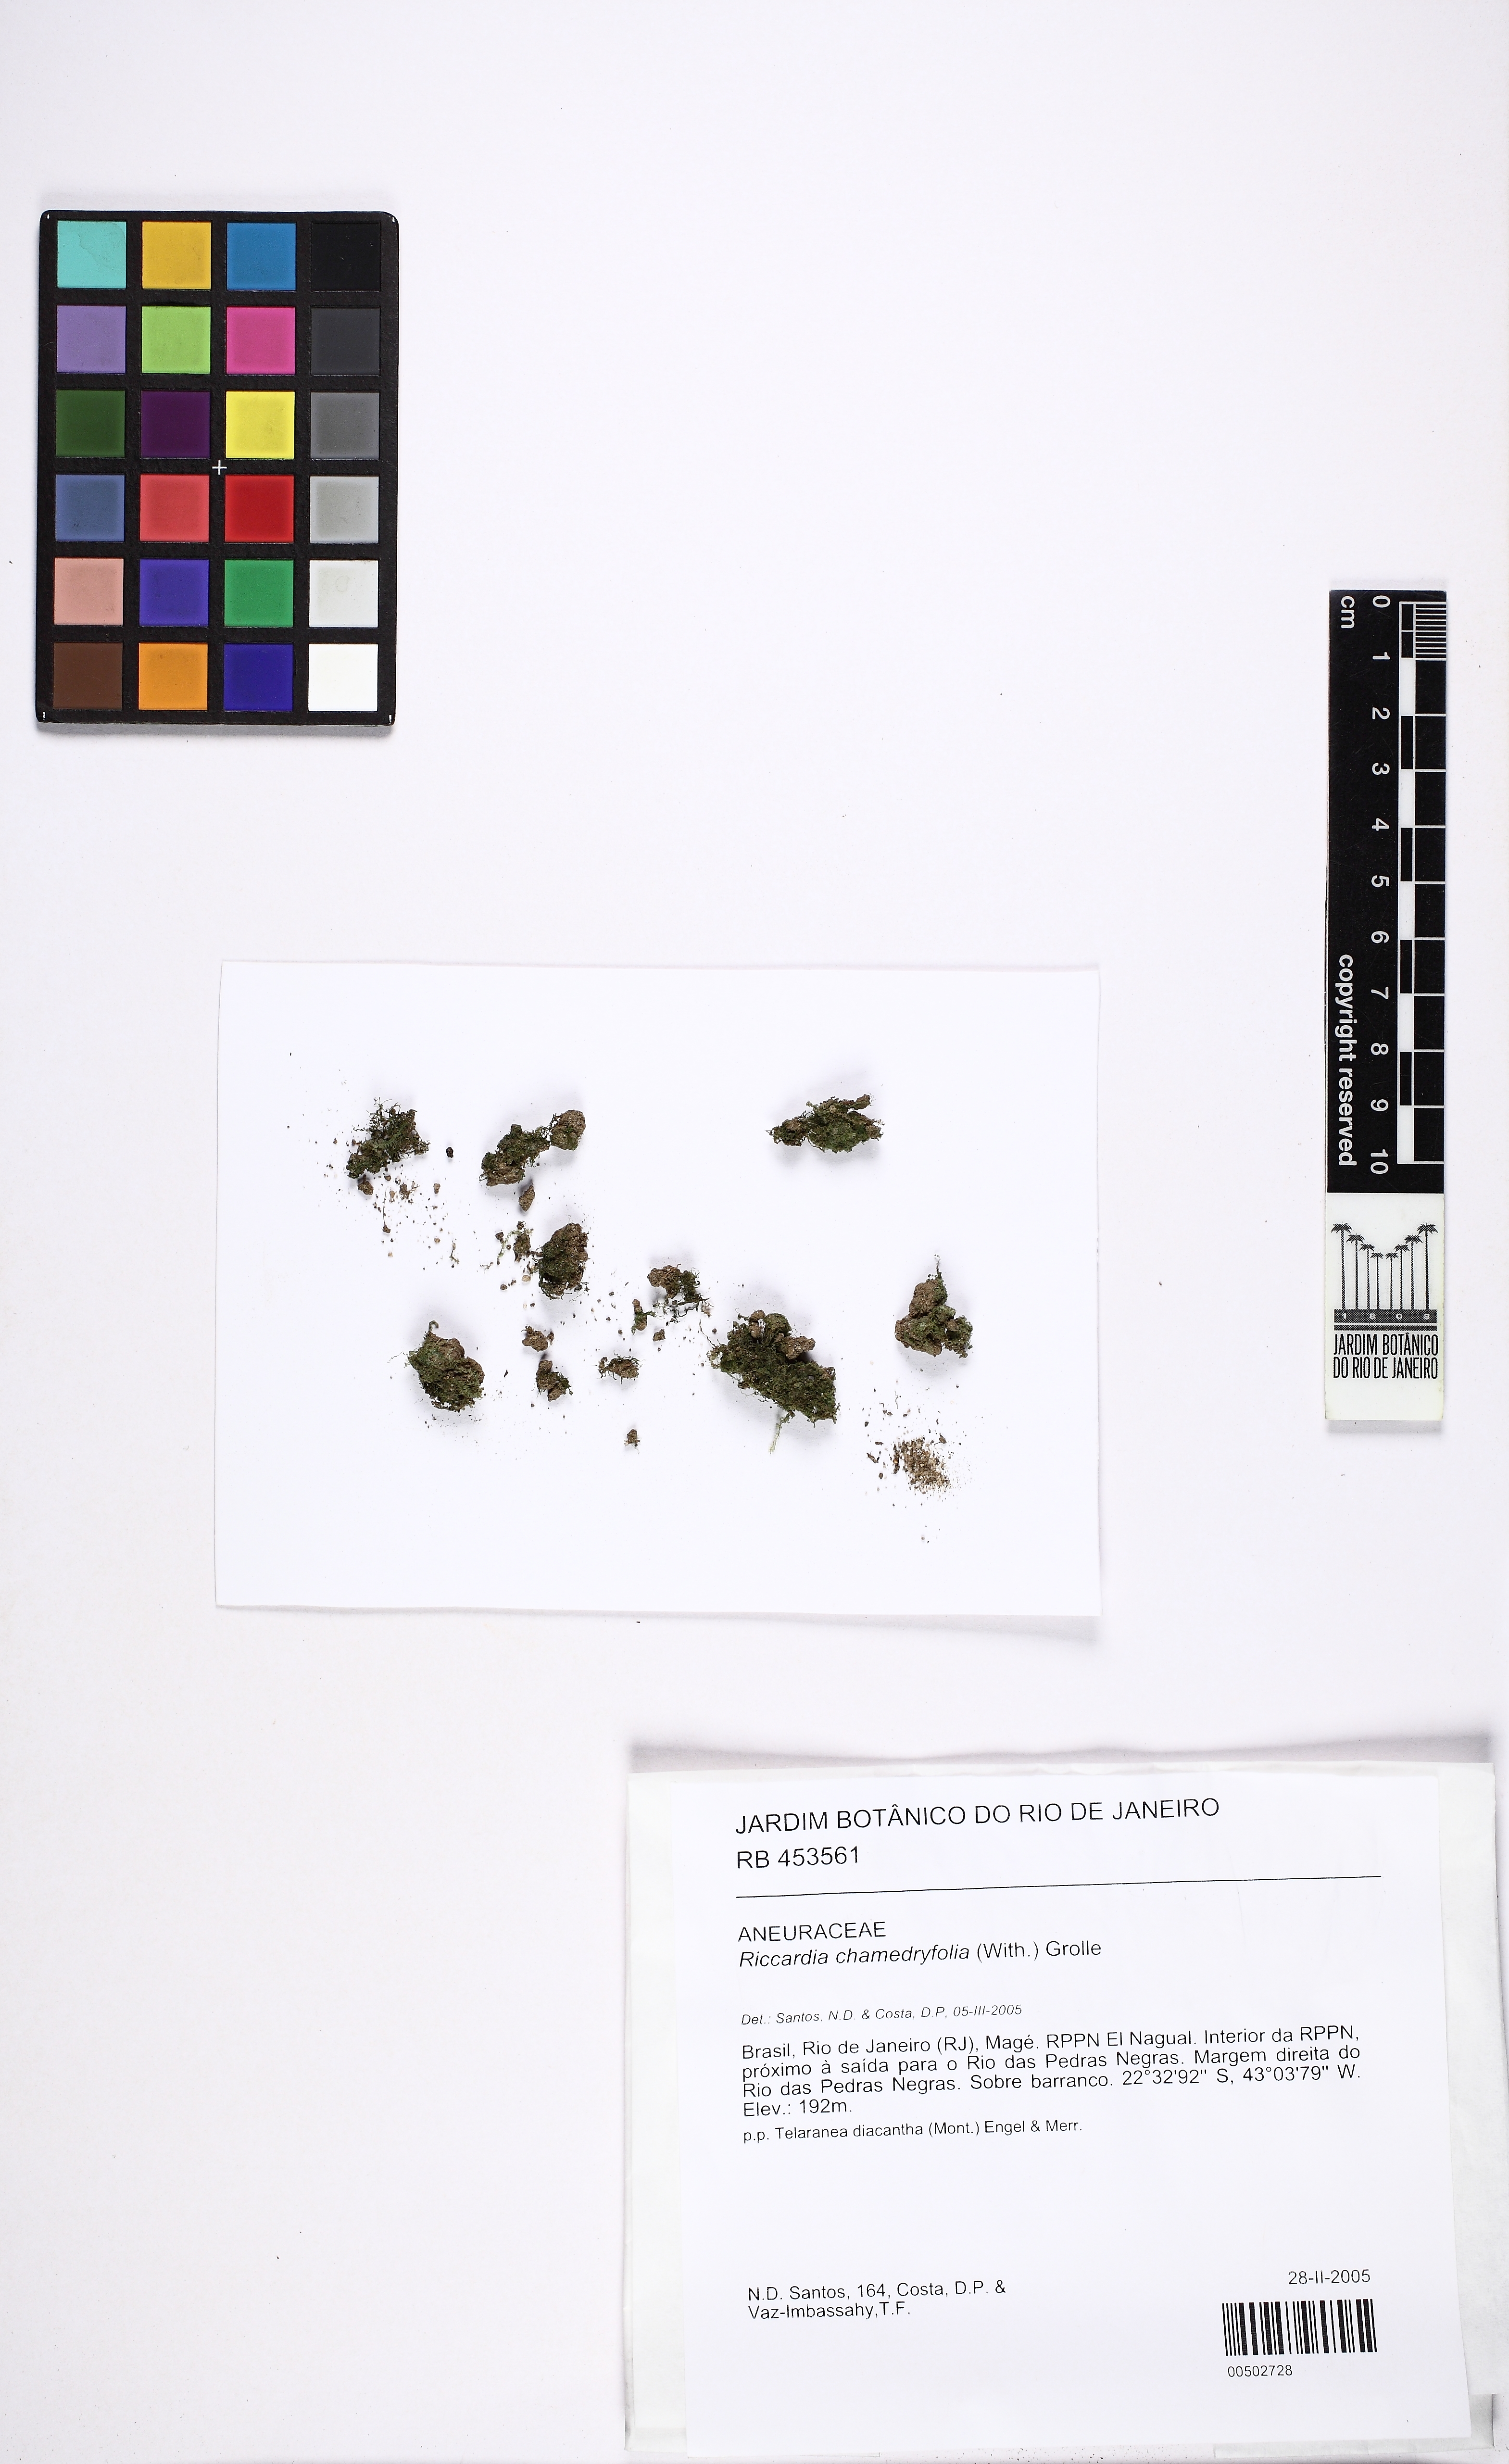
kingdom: Plantae
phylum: Marchantiophyta
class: Jungermanniopsida
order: Metzgeriales
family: Aneuraceae
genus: Riccardia
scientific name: Riccardia chamedryfolia
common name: Jagged germanderwort
